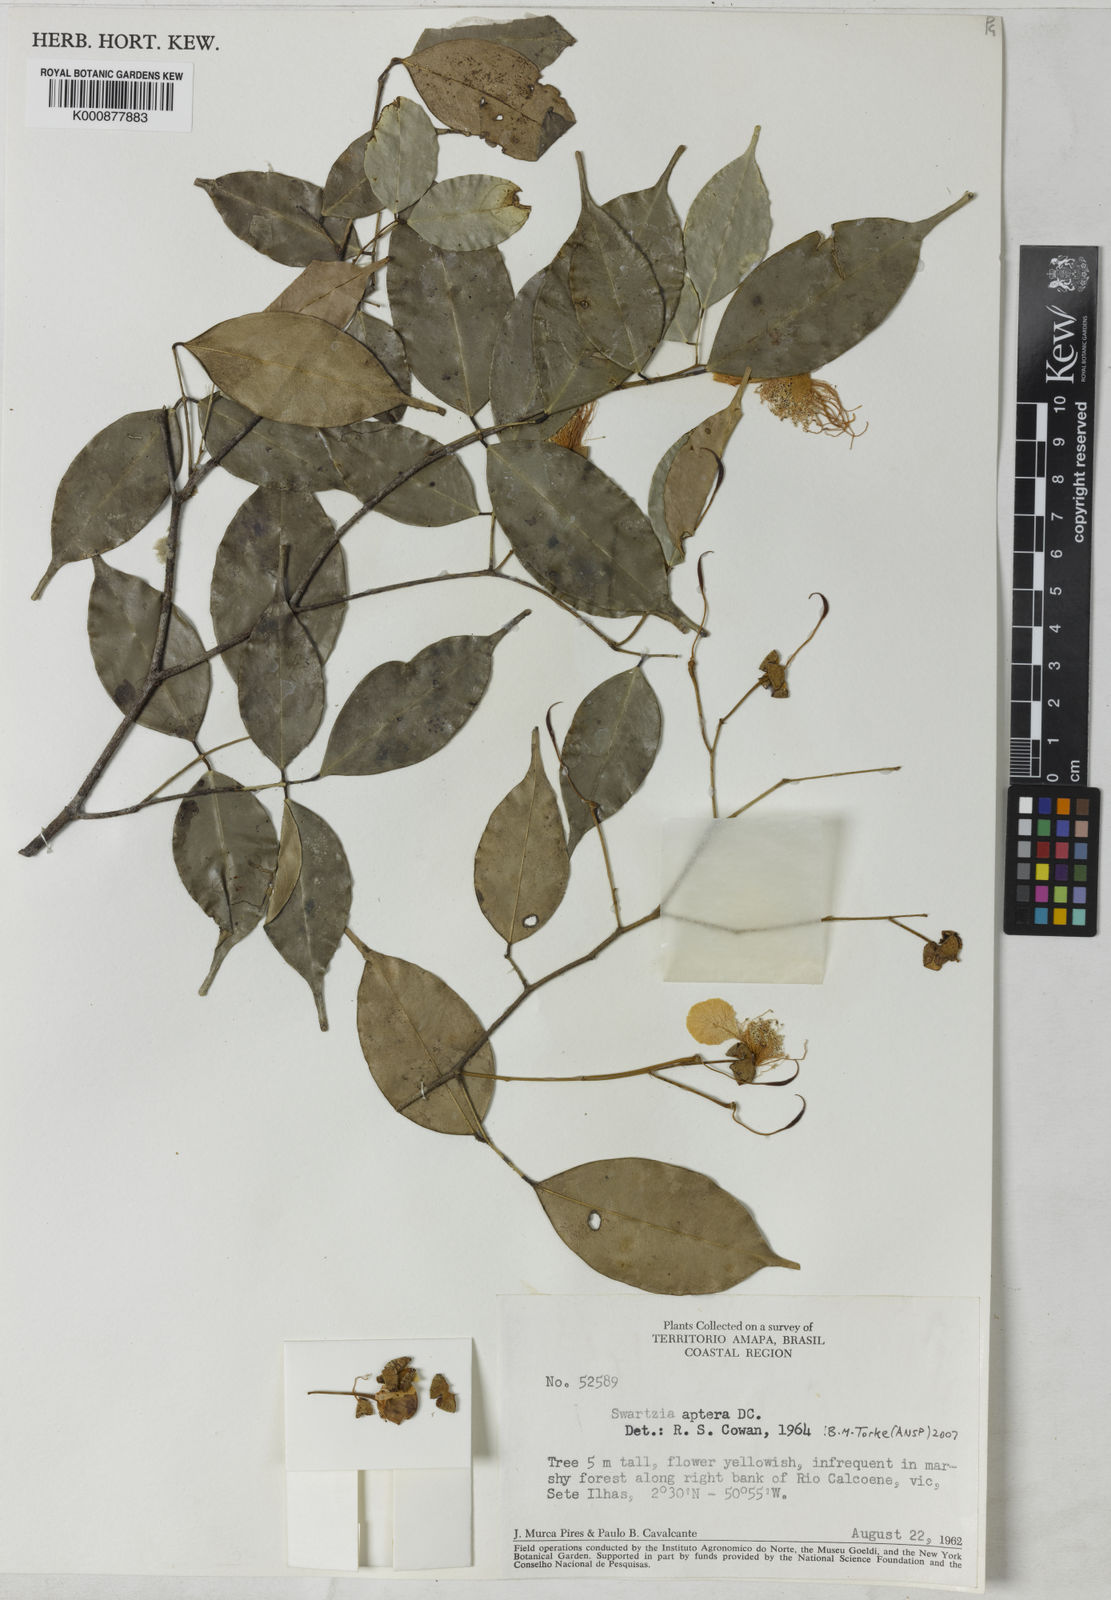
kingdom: Plantae
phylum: Tracheophyta
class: Magnoliopsida
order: Fabales
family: Fabaceae
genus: Swartzia
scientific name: Swartzia aptera
